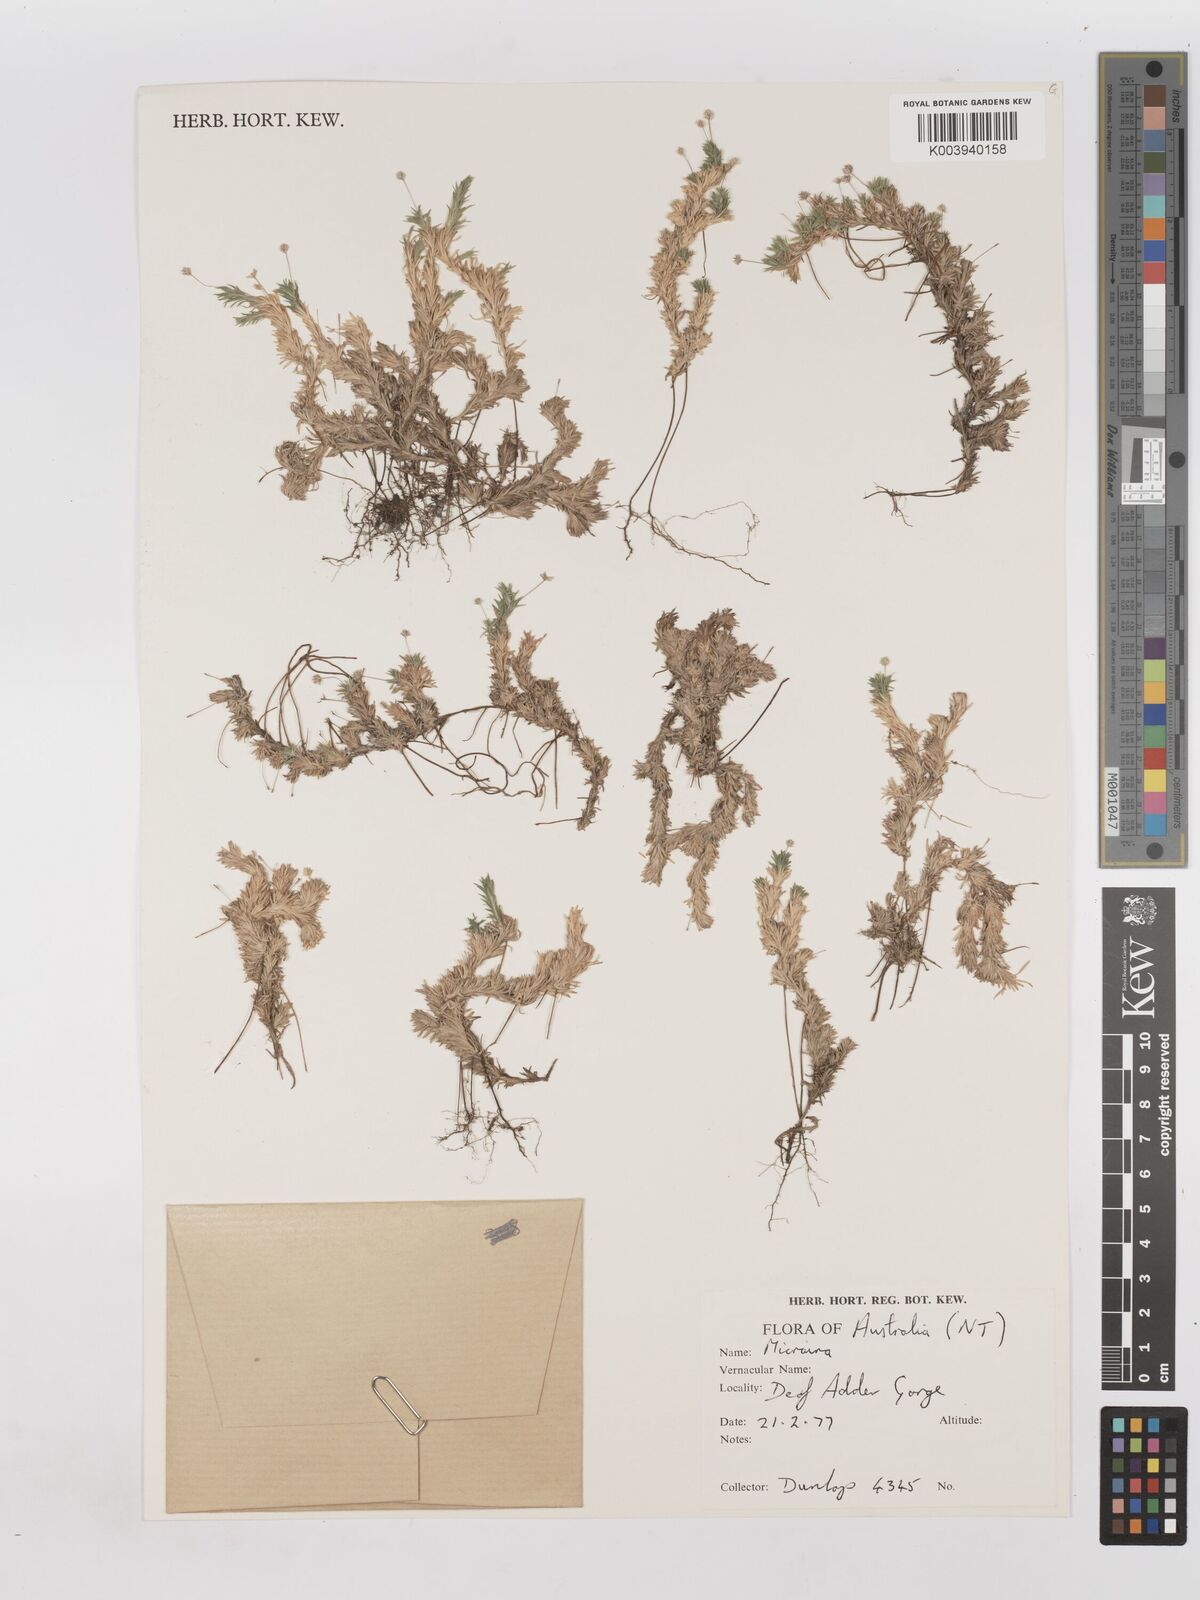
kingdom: Plantae
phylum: Tracheophyta
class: Liliopsida
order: Poales
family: Poaceae
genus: Micraira
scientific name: Micraira subspicata
